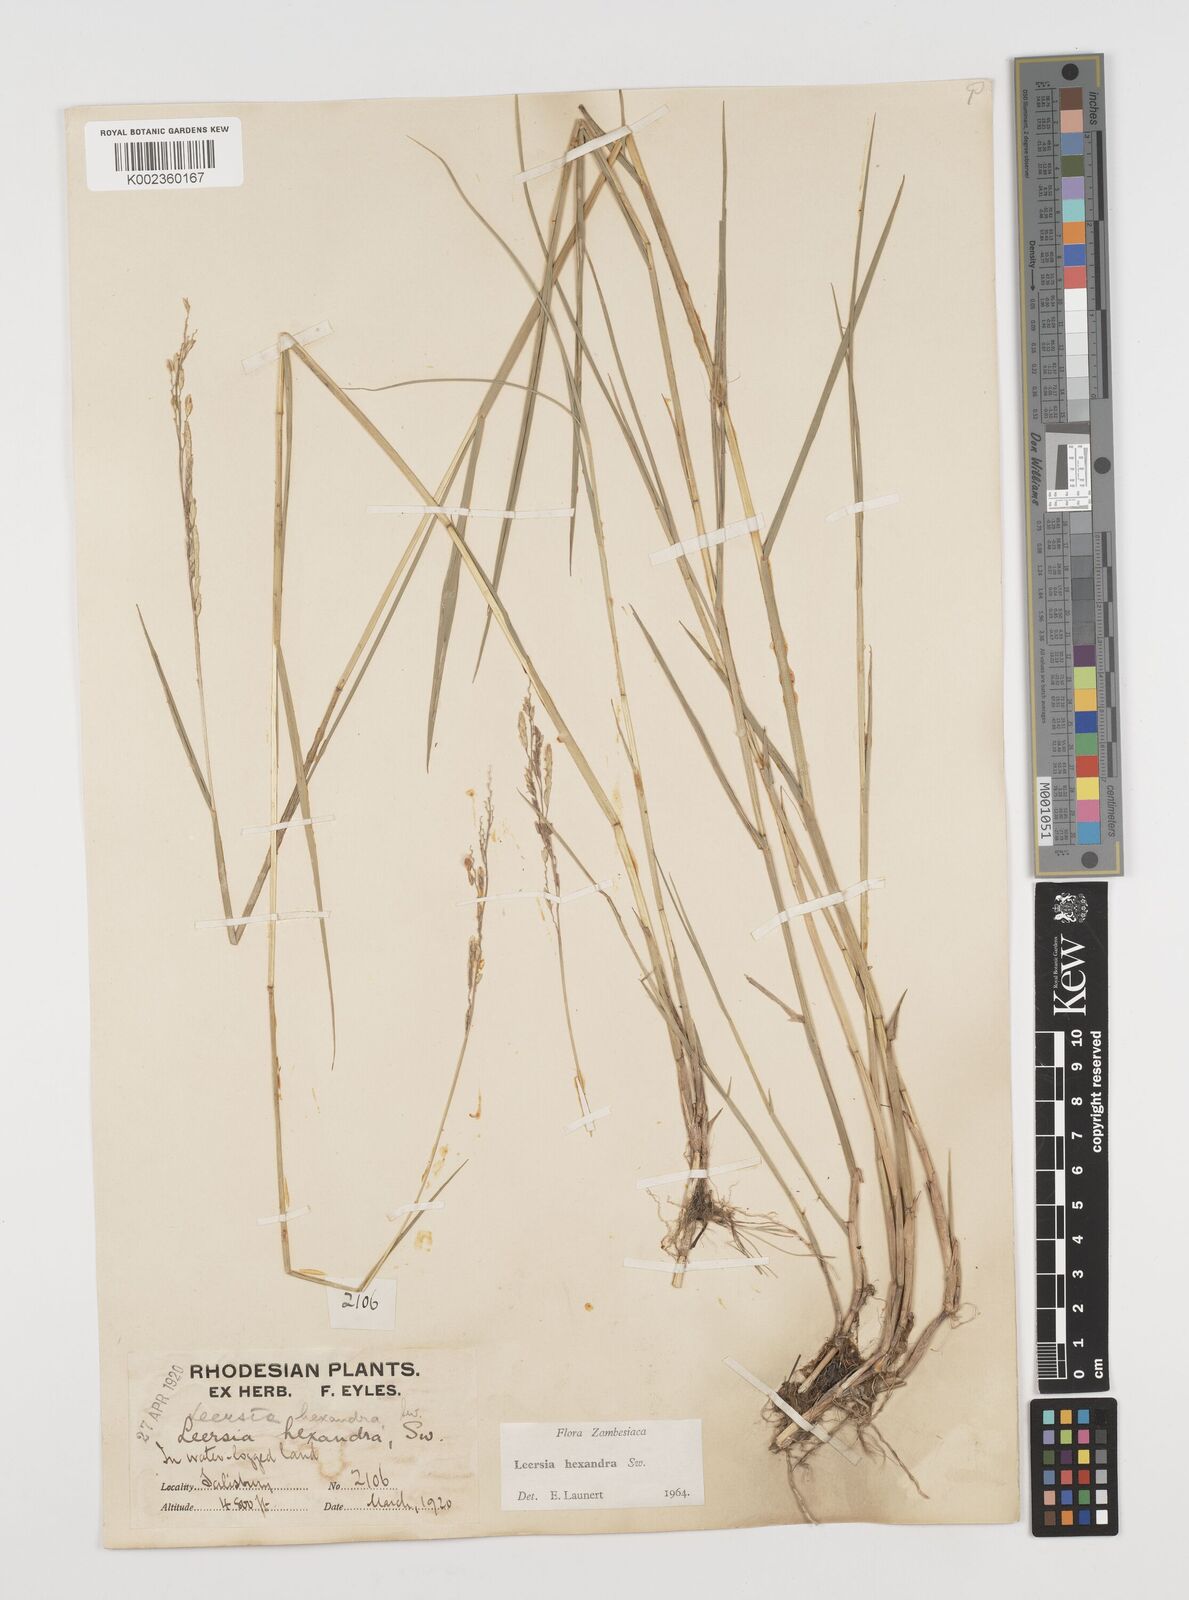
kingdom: Plantae
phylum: Tracheophyta
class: Liliopsida
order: Poales
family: Poaceae
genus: Leersia
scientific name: Leersia hexandra
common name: Southern cut grass
